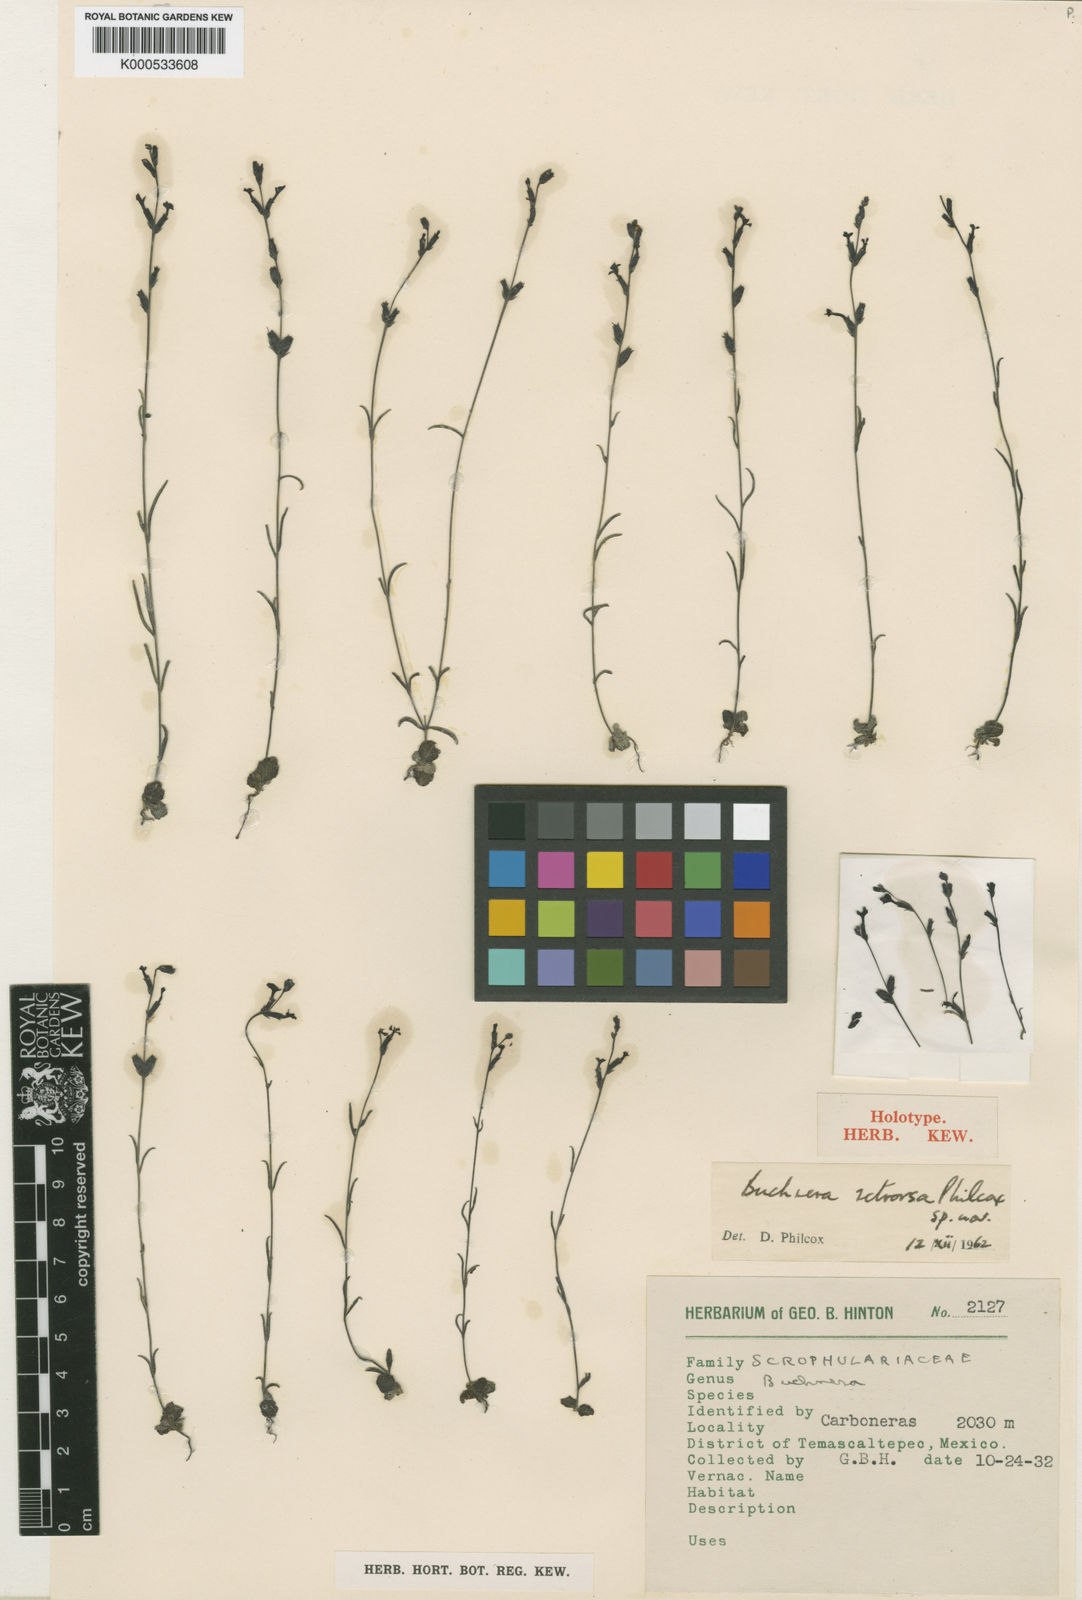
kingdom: Plantae
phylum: Tracheophyta
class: Magnoliopsida
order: Lamiales
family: Orobanchaceae
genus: Buchnera
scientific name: Buchnera retrorsa
